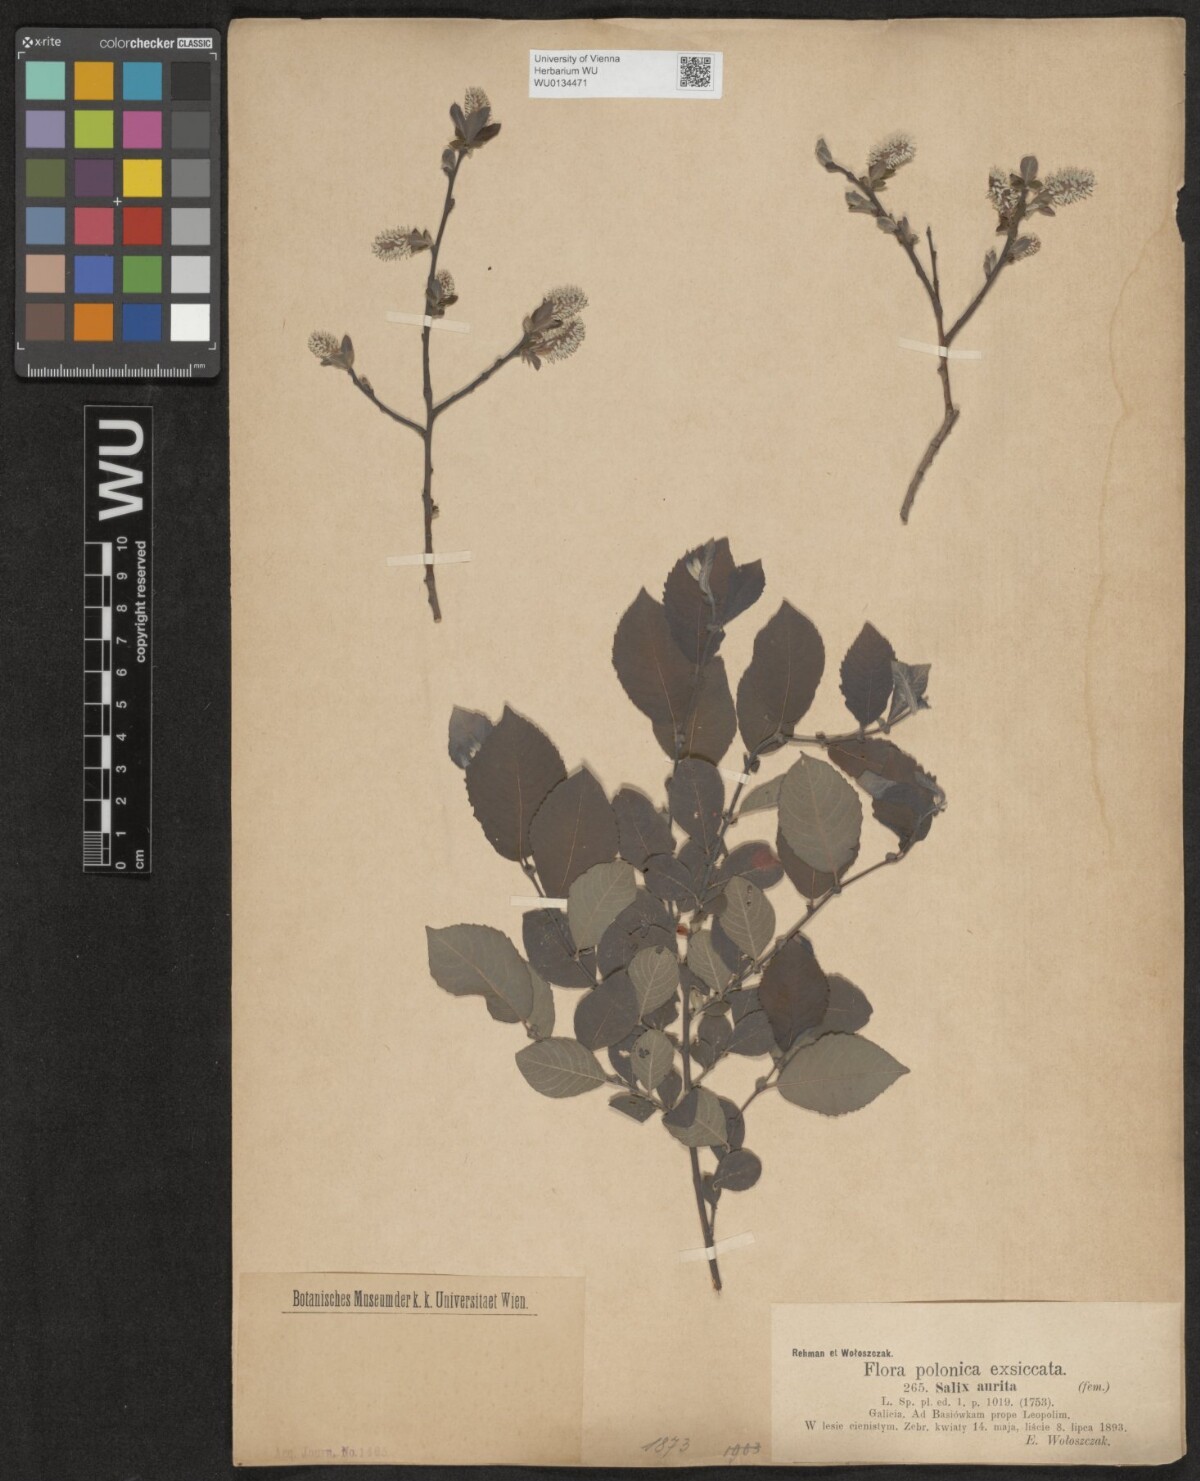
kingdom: Plantae
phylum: Tracheophyta
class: Magnoliopsida
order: Malpighiales
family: Salicaceae
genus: Salix
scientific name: Salix aurita
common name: Eared willow
